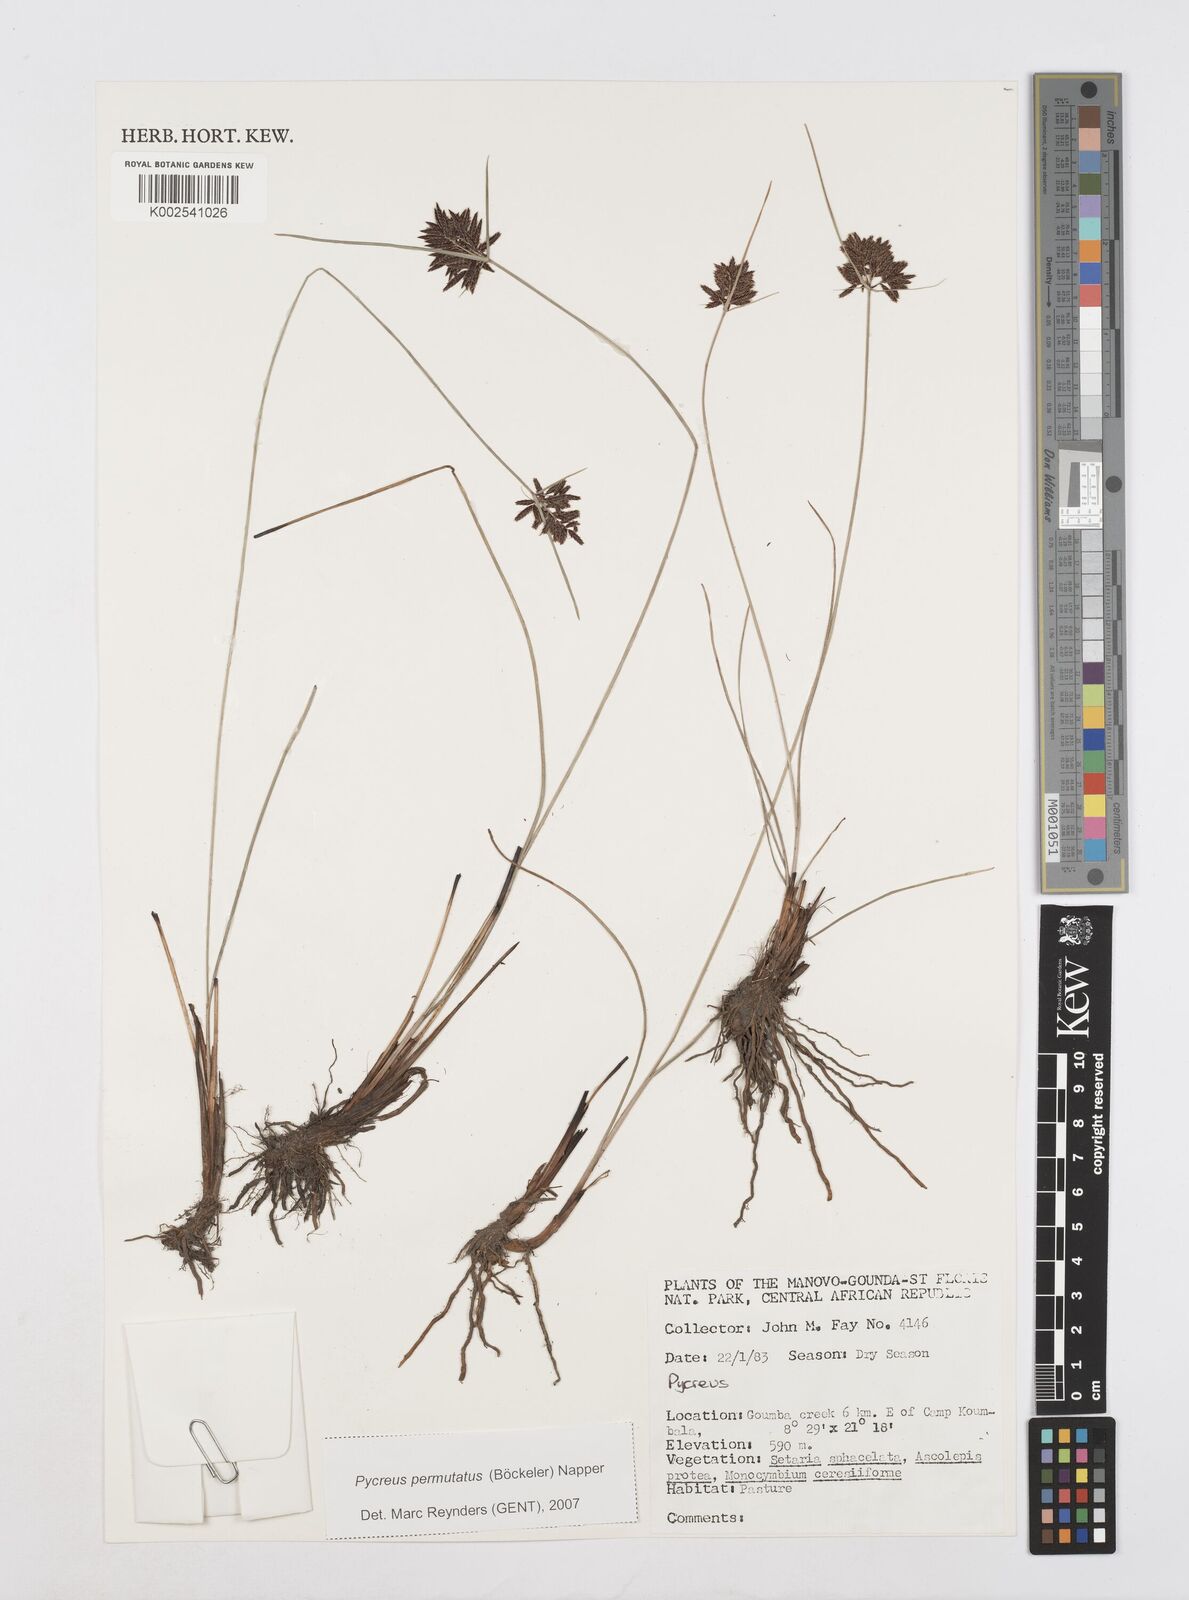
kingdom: Plantae
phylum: Tracheophyta
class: Liliopsida
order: Poales
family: Cyperaceae
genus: Cyperus
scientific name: Cyperus
